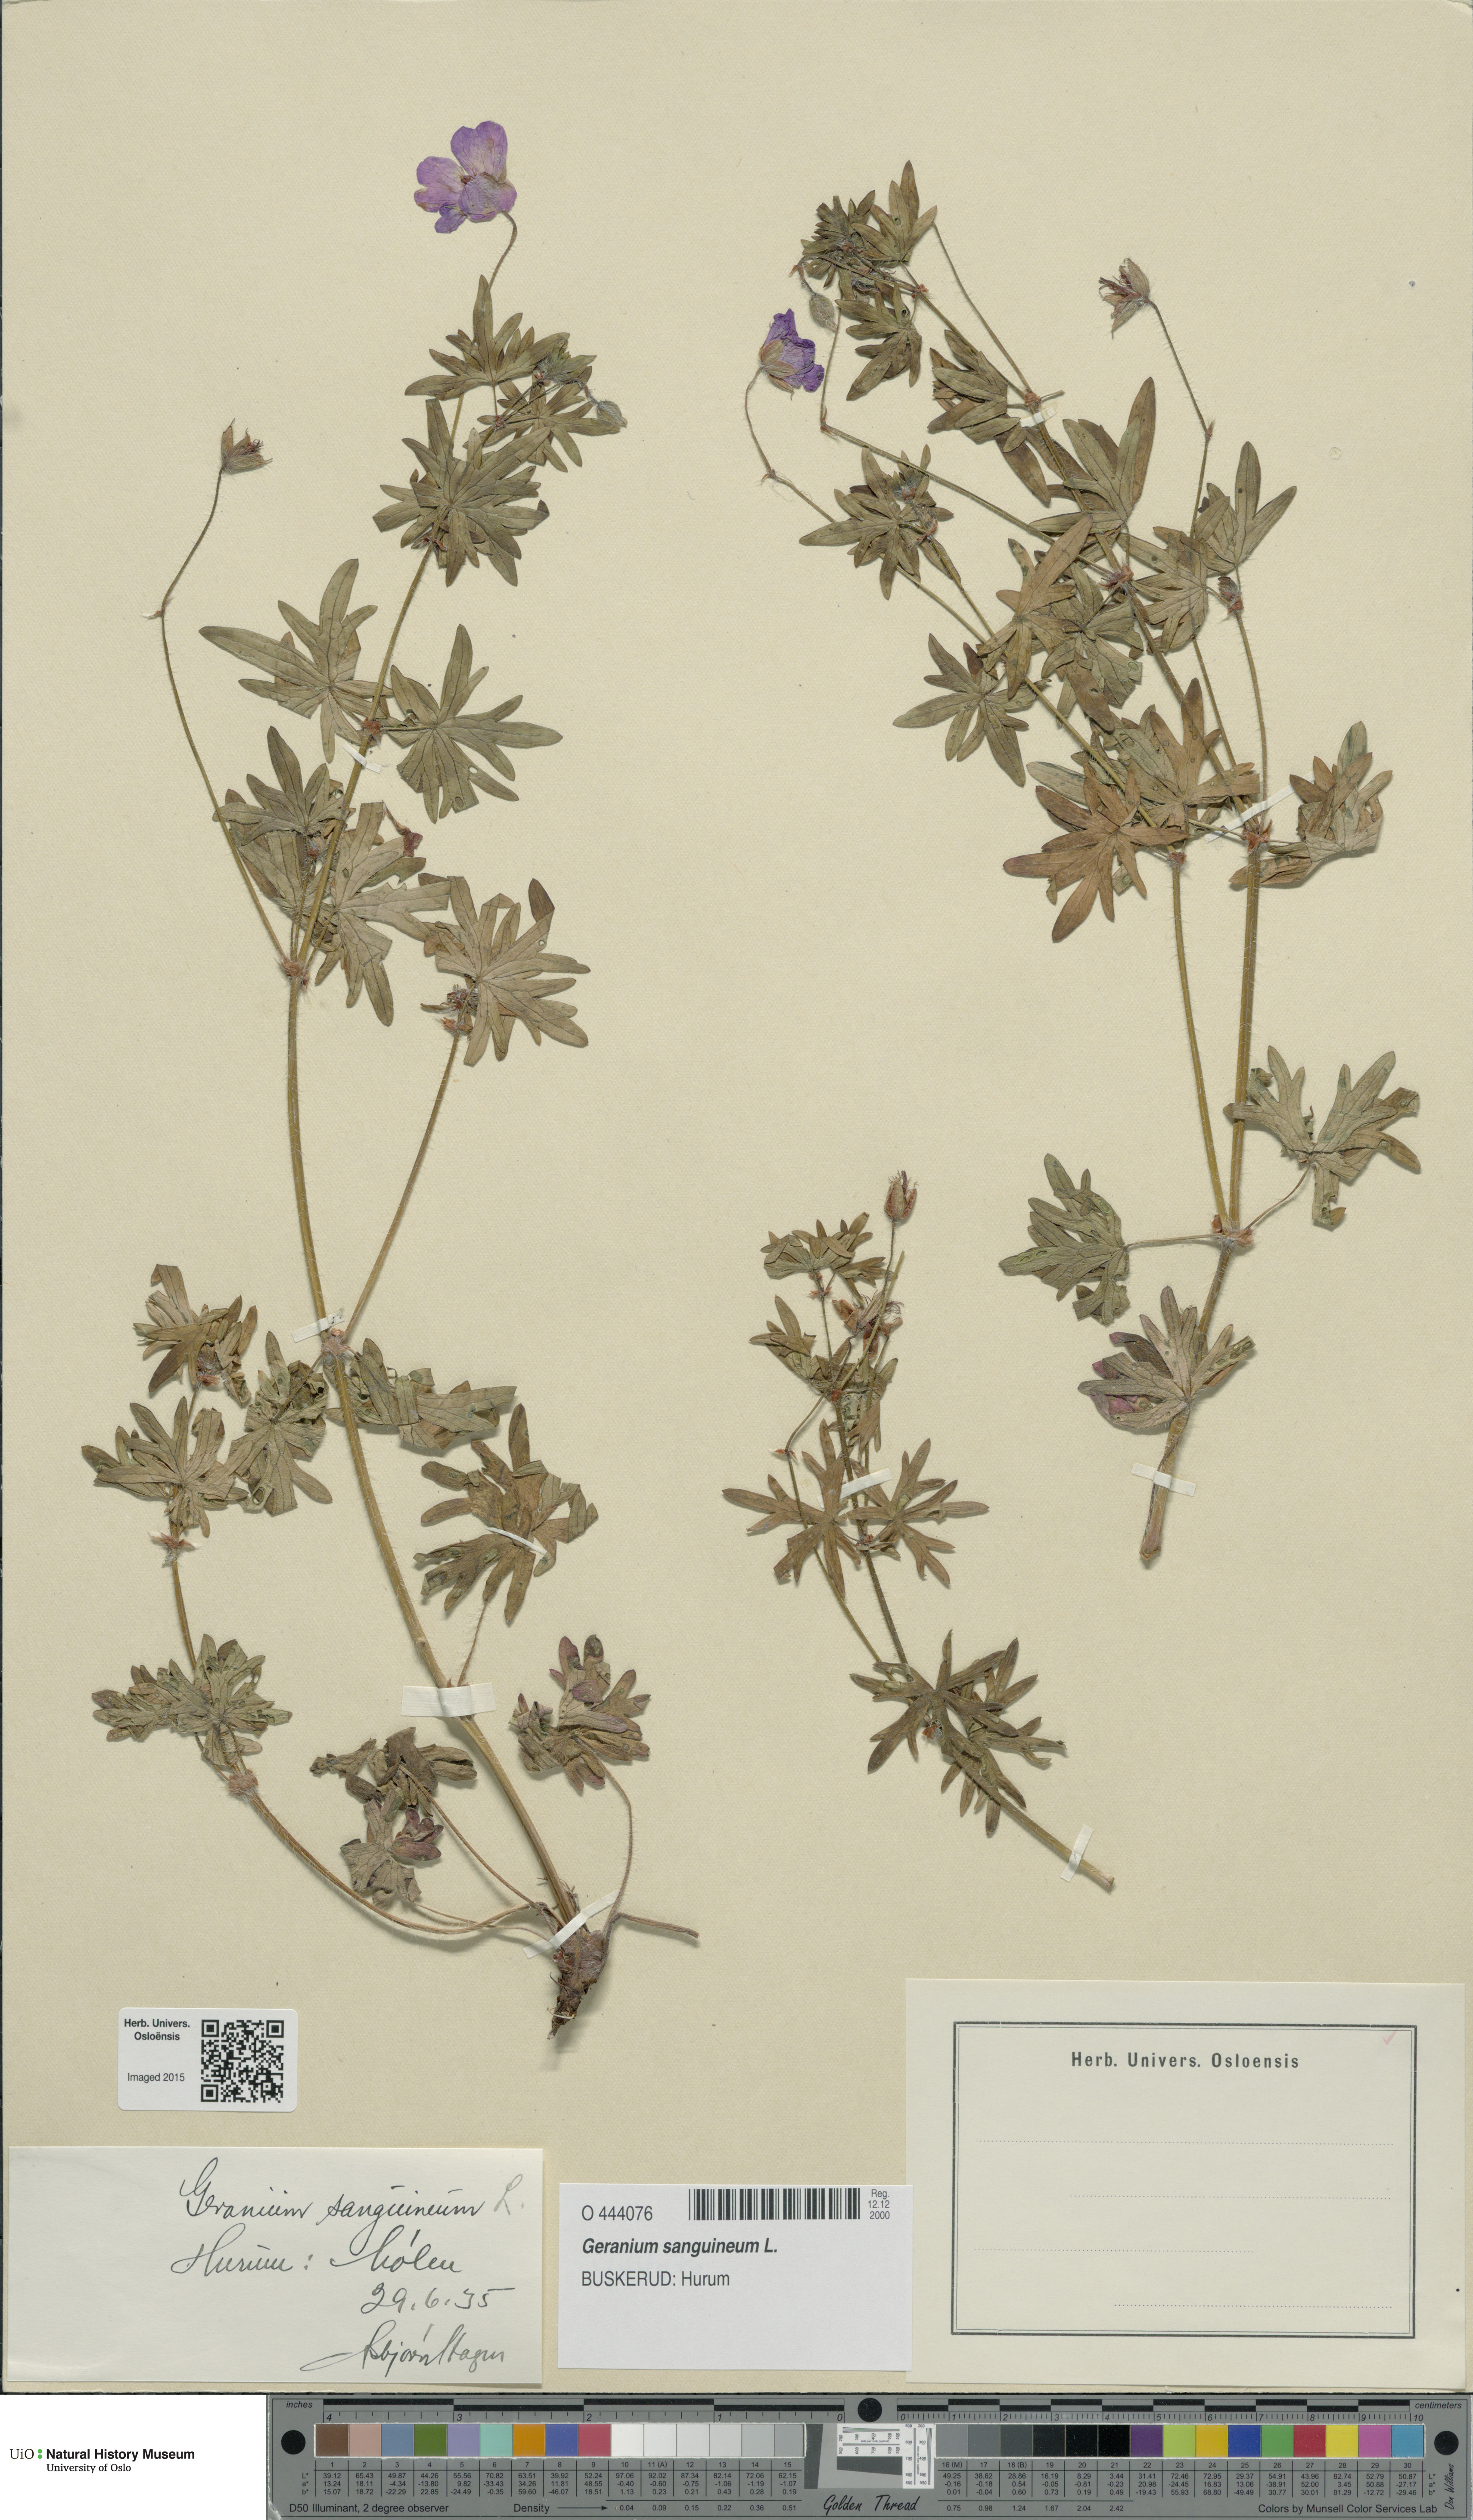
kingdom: Plantae
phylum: Tracheophyta
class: Magnoliopsida
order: Geraniales
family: Geraniaceae
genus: Geranium
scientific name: Geranium sanguineum
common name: Bloody crane's-bill
